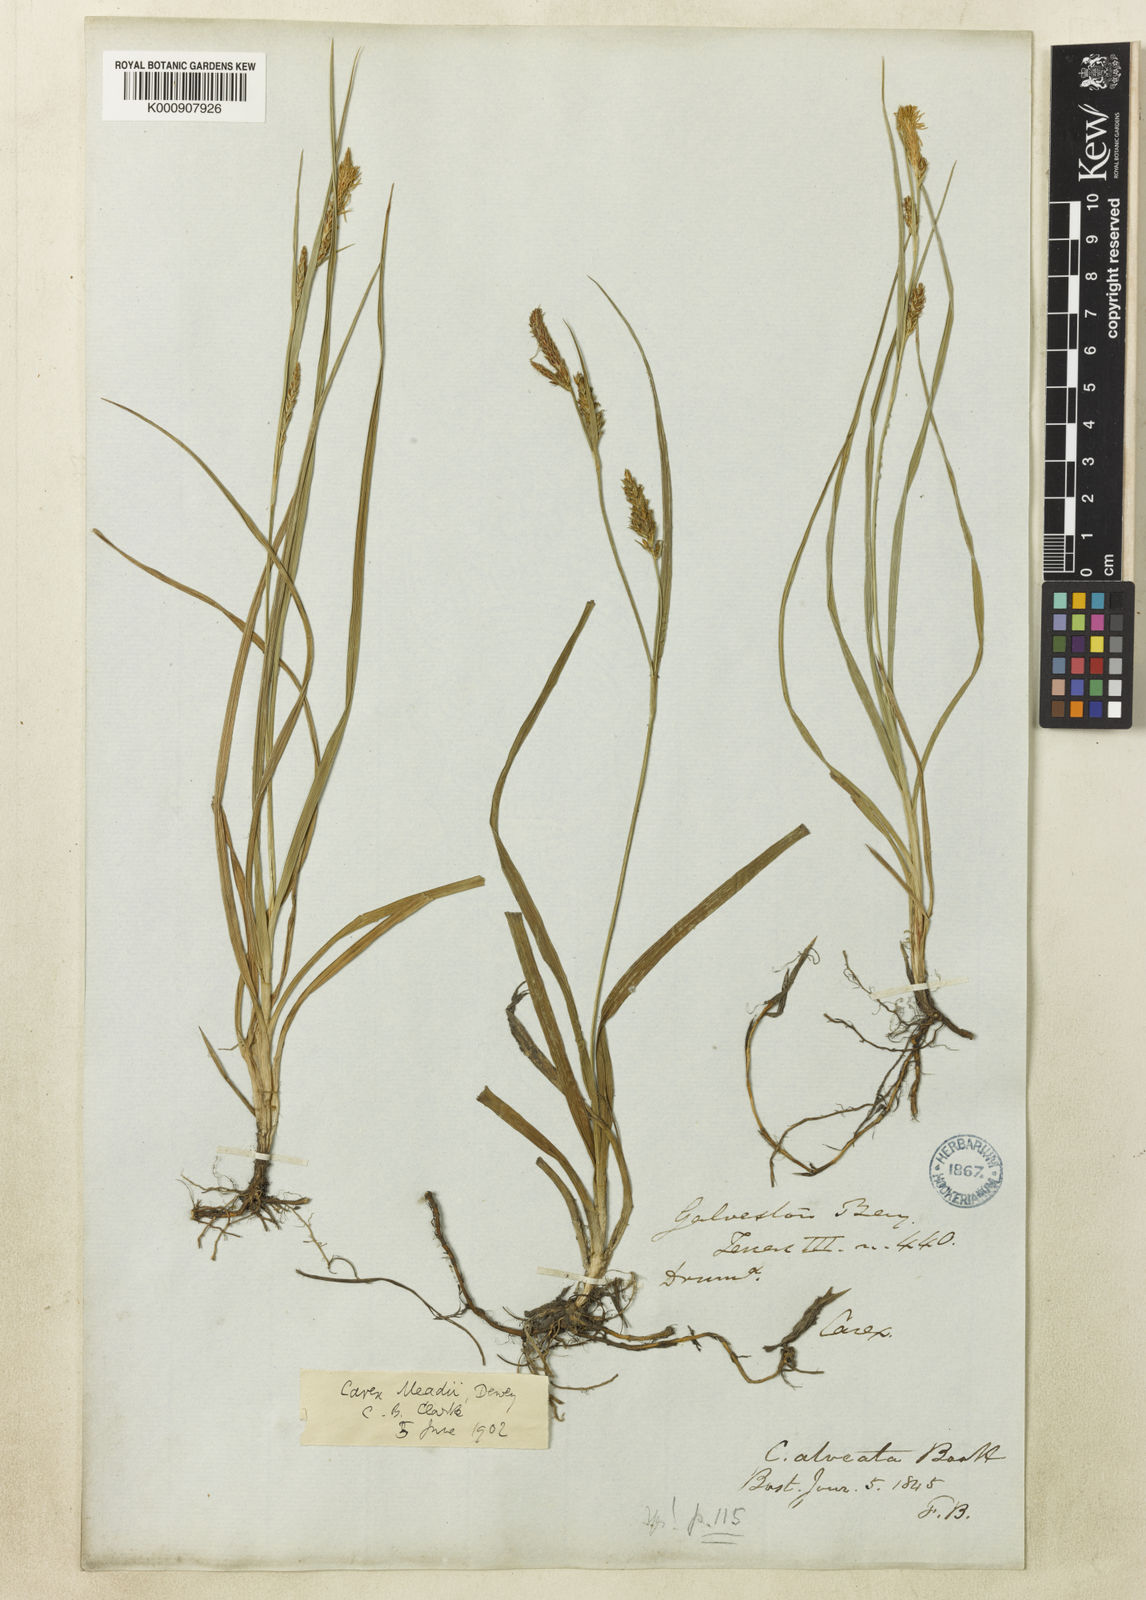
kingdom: Plantae
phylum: Tracheophyta
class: Liliopsida
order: Poales
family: Cyperaceae
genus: Carex
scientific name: Carex microdonta
